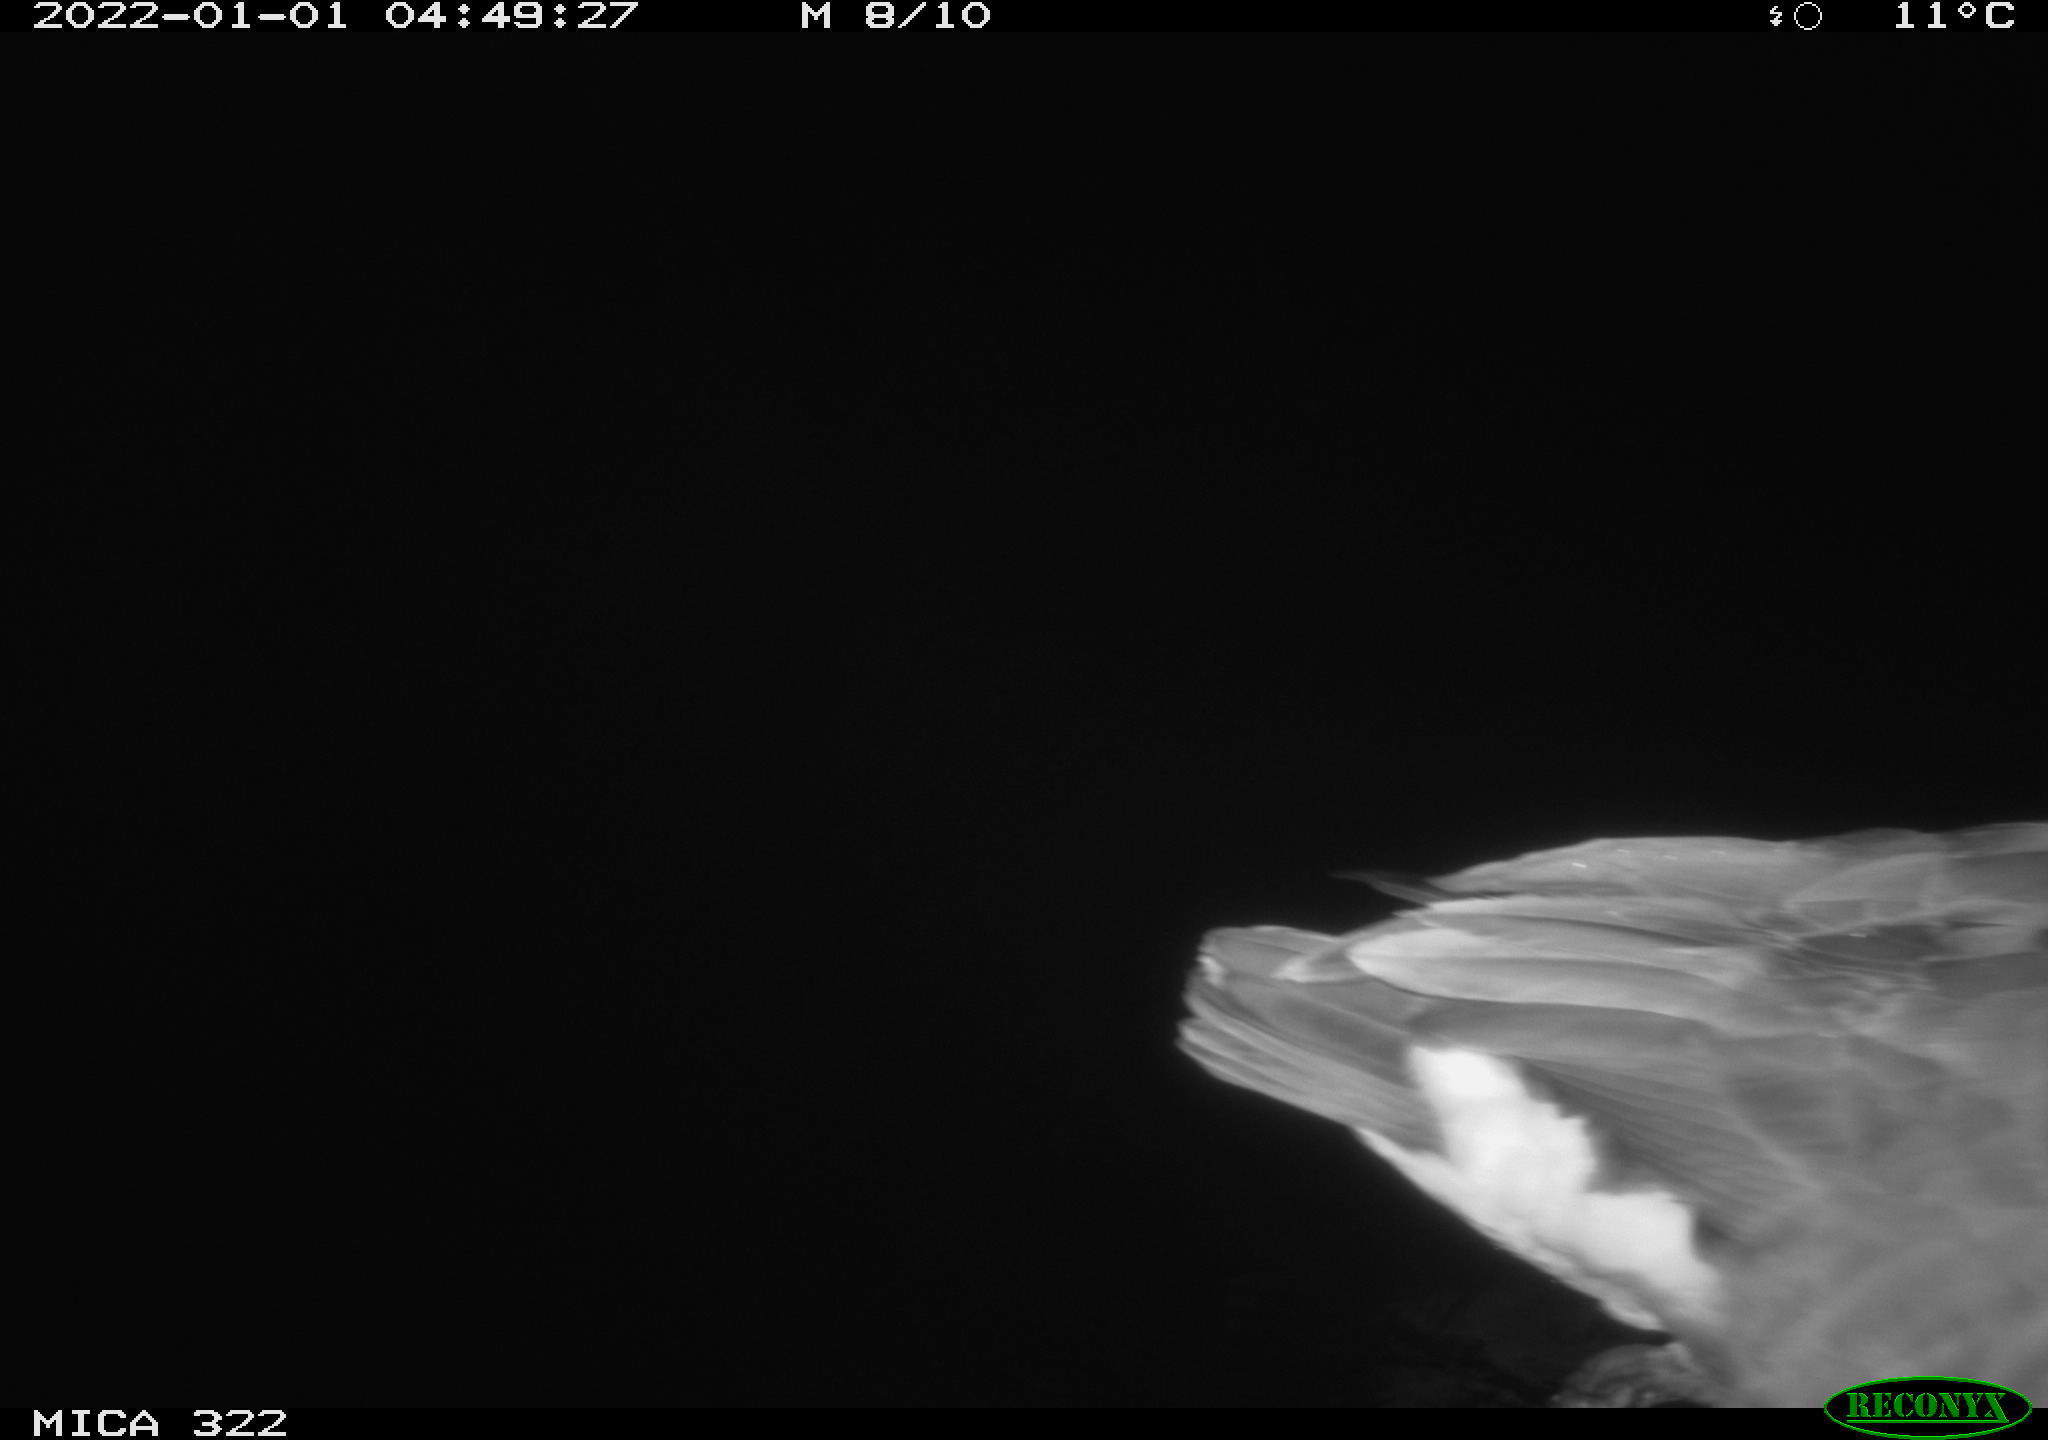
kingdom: Animalia
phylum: Chordata
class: Aves
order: Anseriformes
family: Anatidae
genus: Anser
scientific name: Anser anser
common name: Greylag goose
